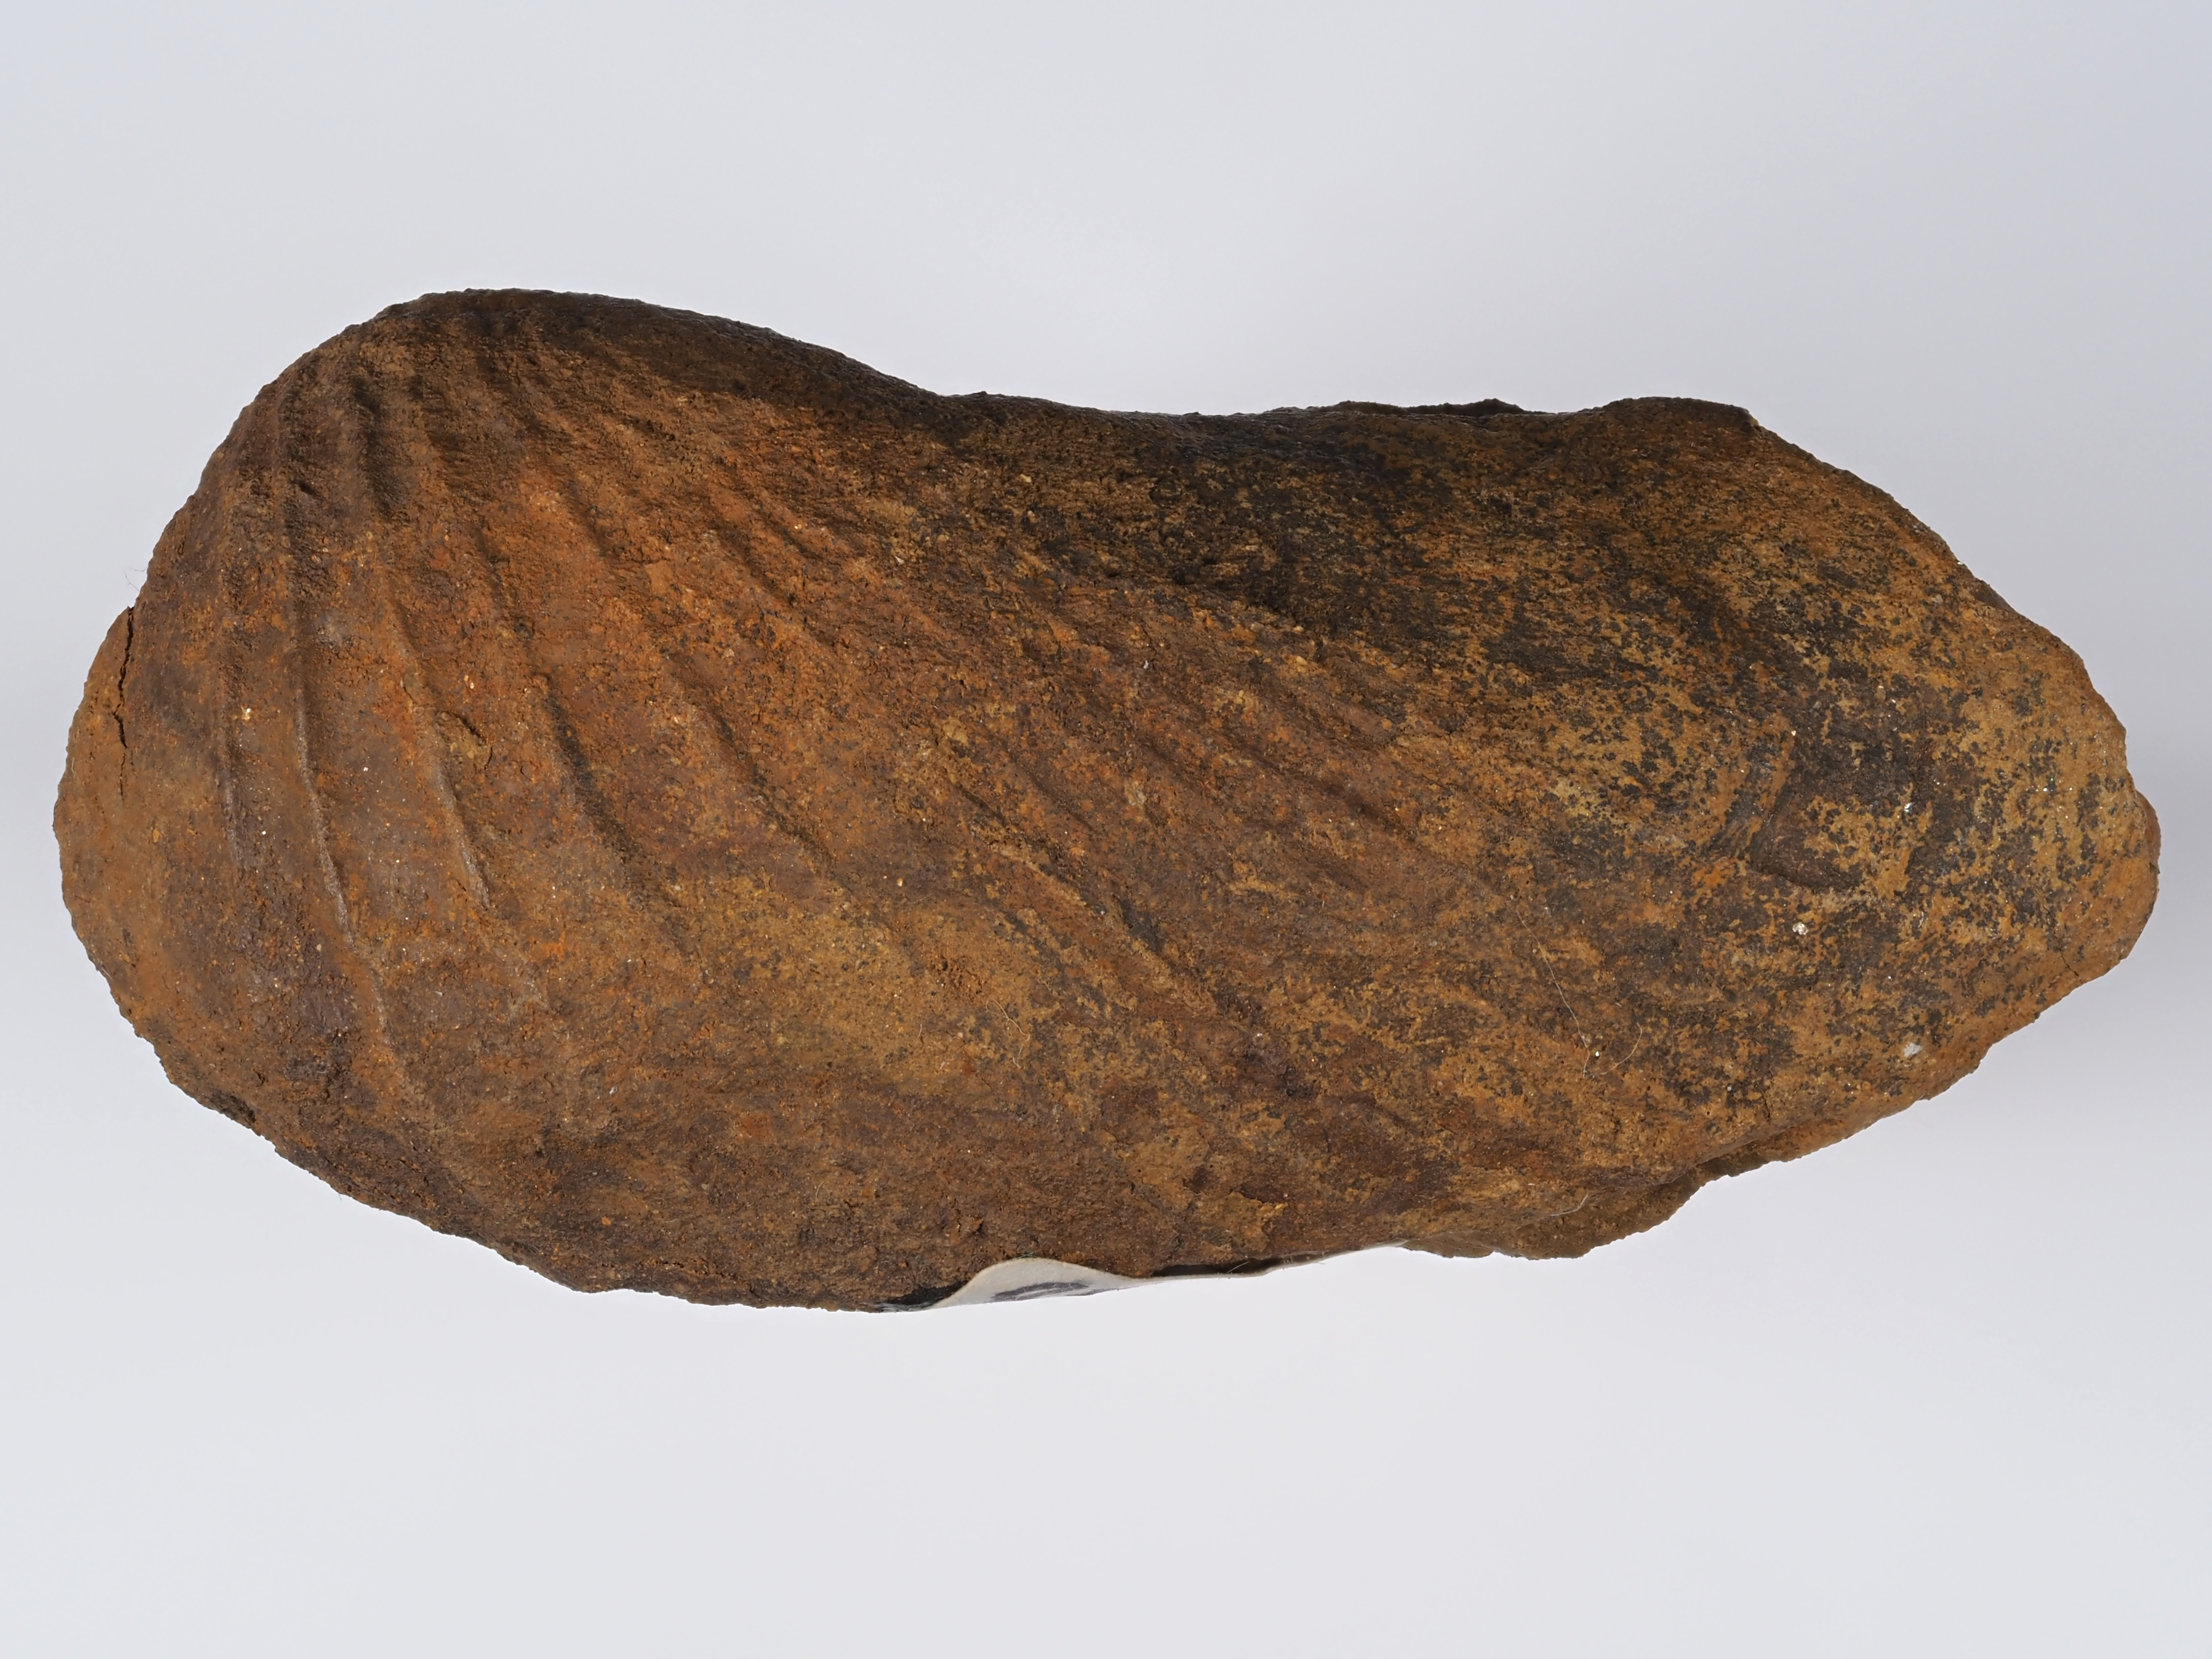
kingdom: Animalia
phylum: Mollusca
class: Bivalvia
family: Pholadomyidae
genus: Pholadomya
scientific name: Pholadomya fidicula
